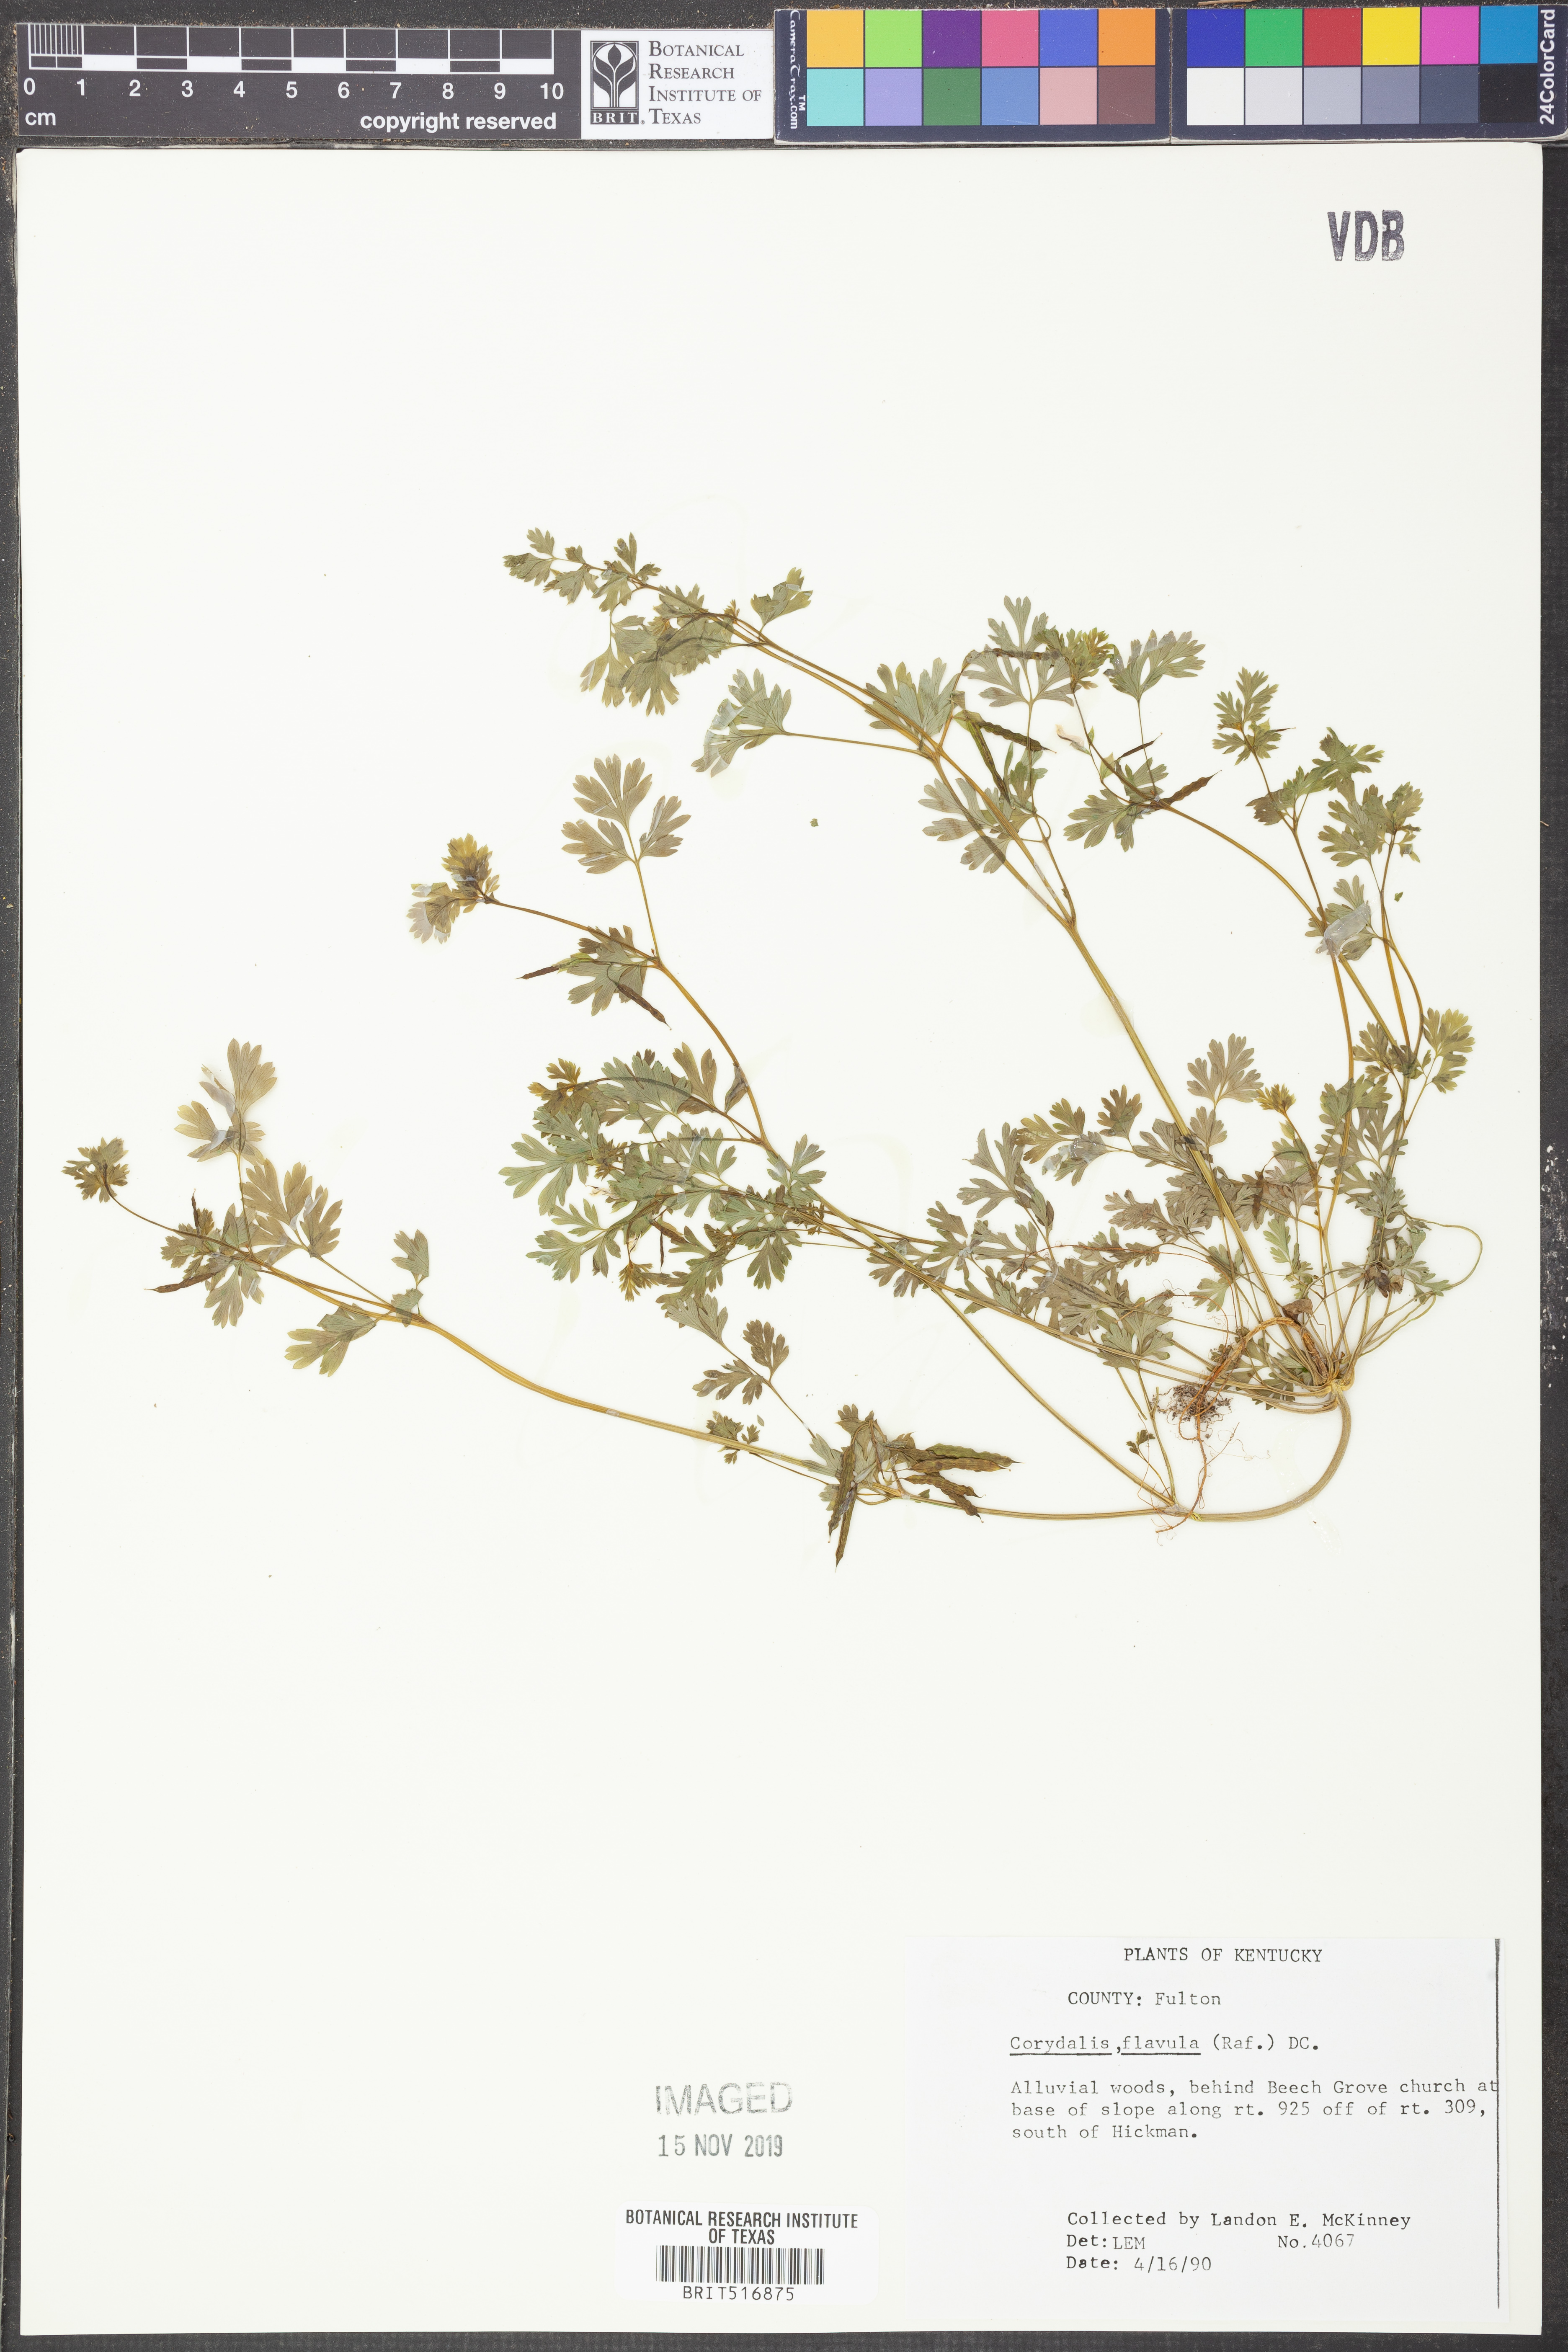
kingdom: Plantae
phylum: Tracheophyta
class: Magnoliopsida
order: Ranunculales
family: Papaveraceae
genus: Corydalis
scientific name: Corydalis flavula
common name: Yellow corydalis
